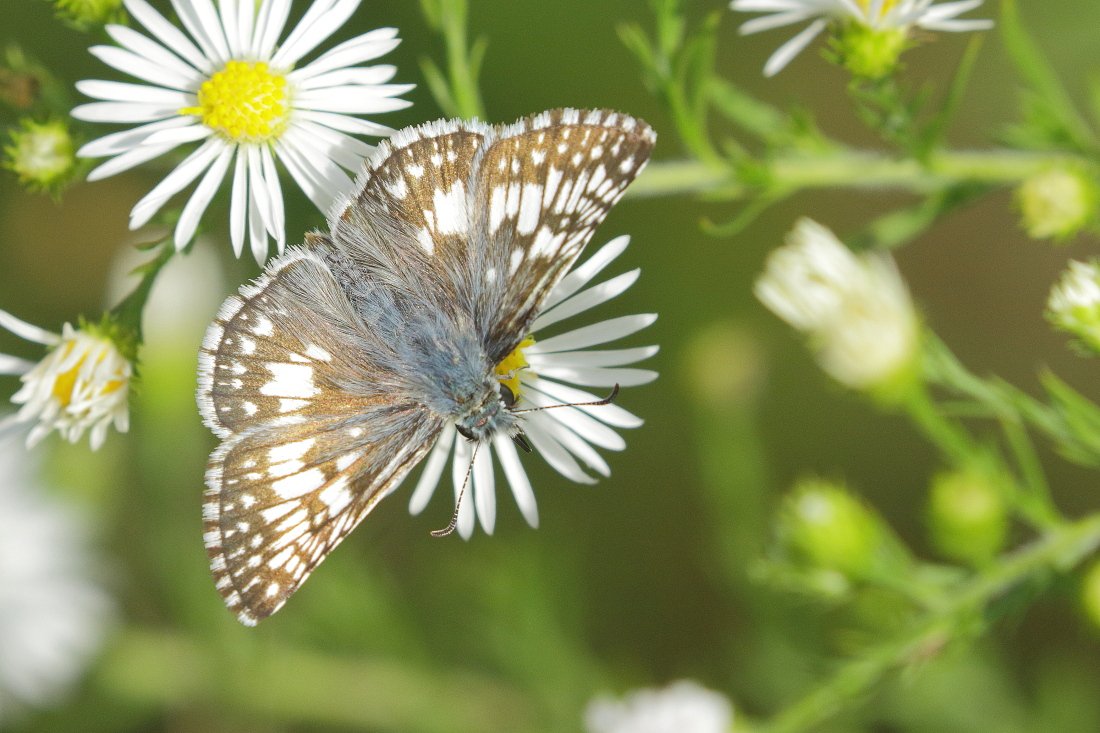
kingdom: Animalia
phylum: Arthropoda
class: Insecta
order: Lepidoptera
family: Hesperiidae
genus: Pyrgus
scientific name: Pyrgus communis
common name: Common Checkered-Skipper
